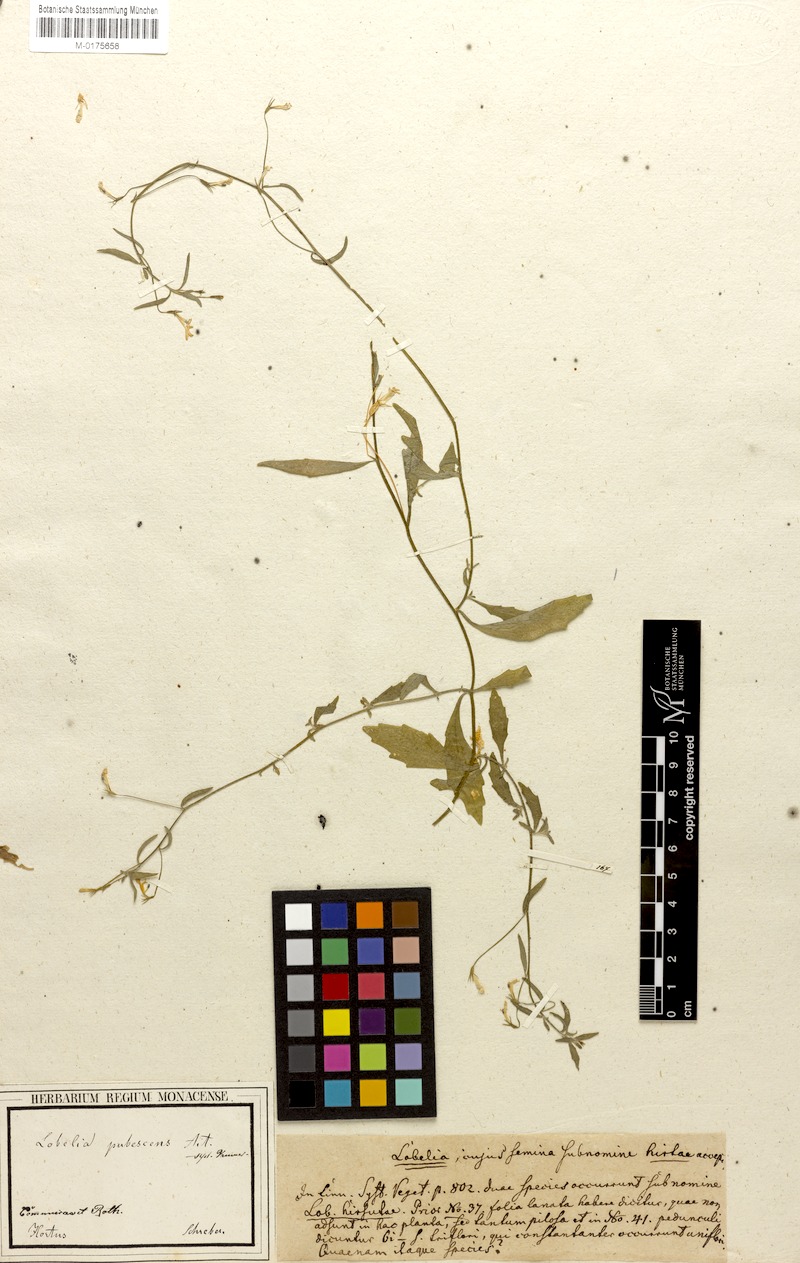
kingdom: Plantae
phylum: Tracheophyta
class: Magnoliopsida
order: Asterales
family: Campanulaceae
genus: Lobelia
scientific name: Lobelia pubescens
